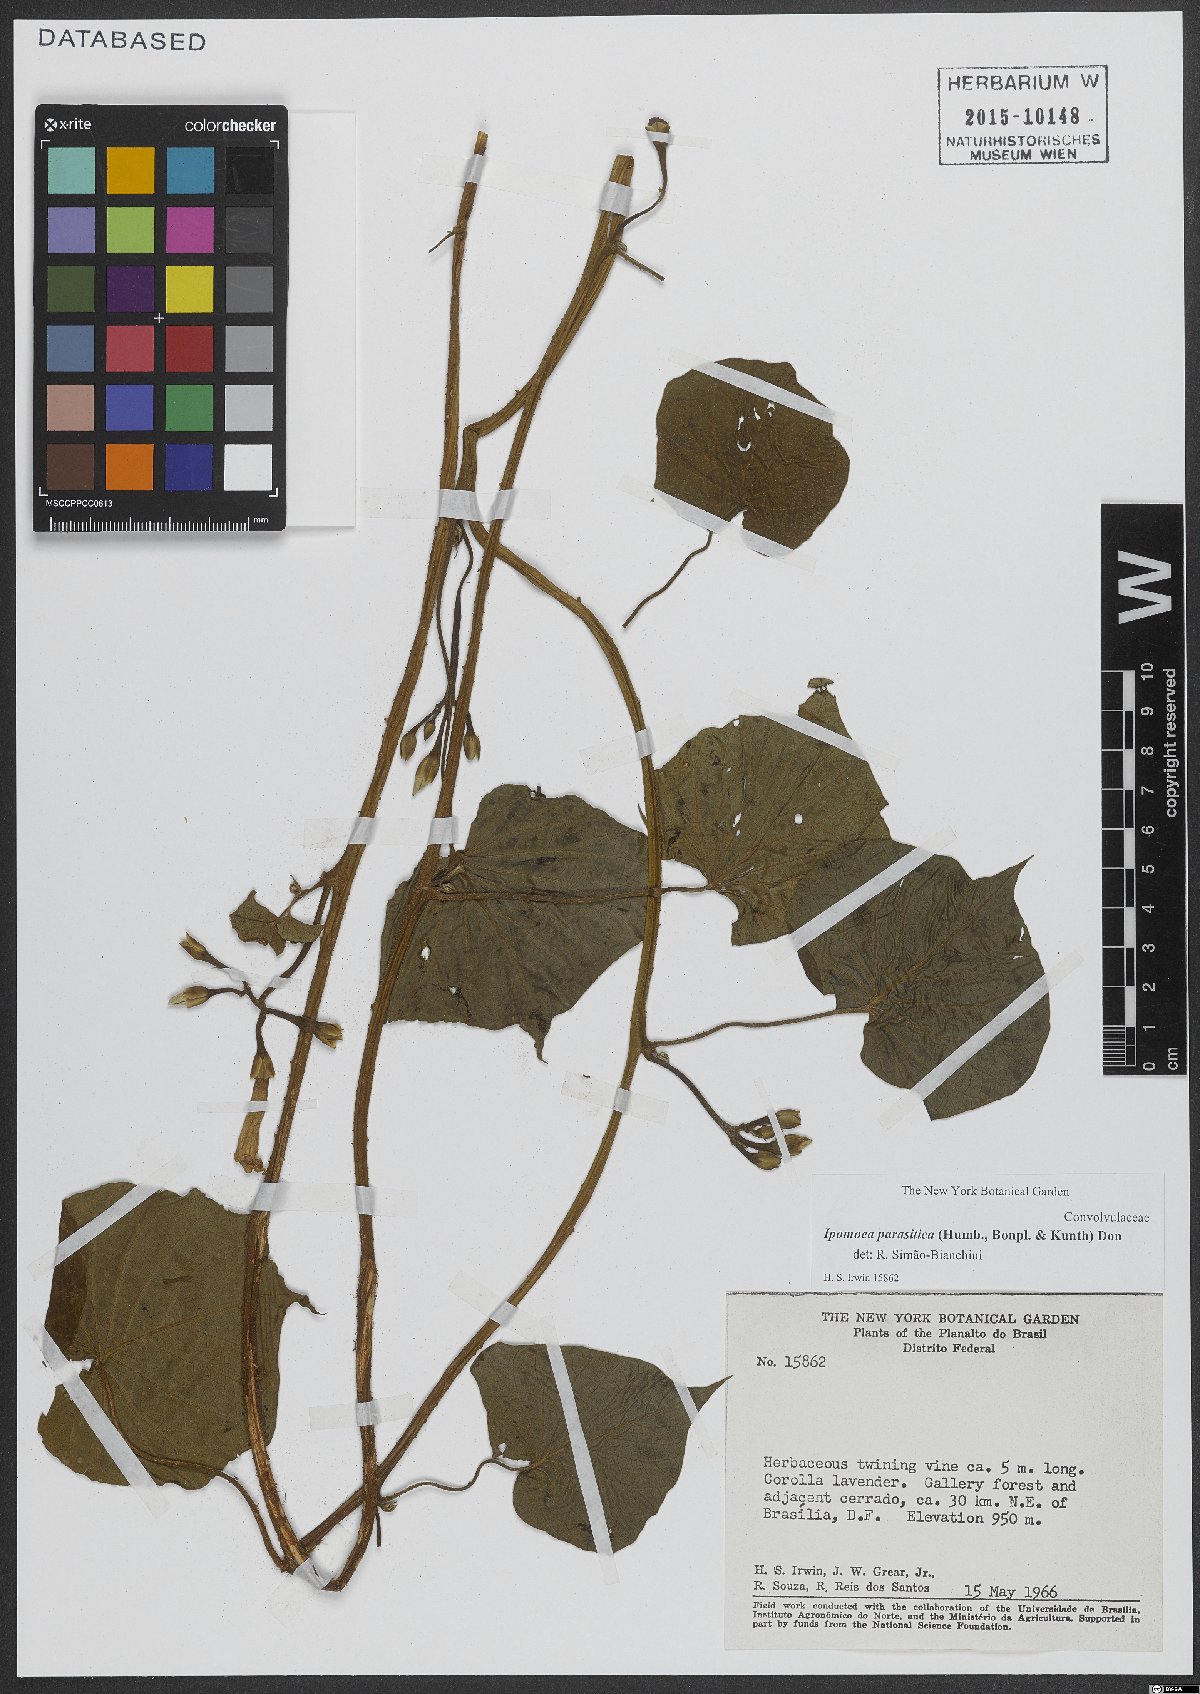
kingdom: Plantae
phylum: Tracheophyta
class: Magnoliopsida
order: Solanales
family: Convolvulaceae
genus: Ipomoea
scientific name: Ipomoea parasitica
